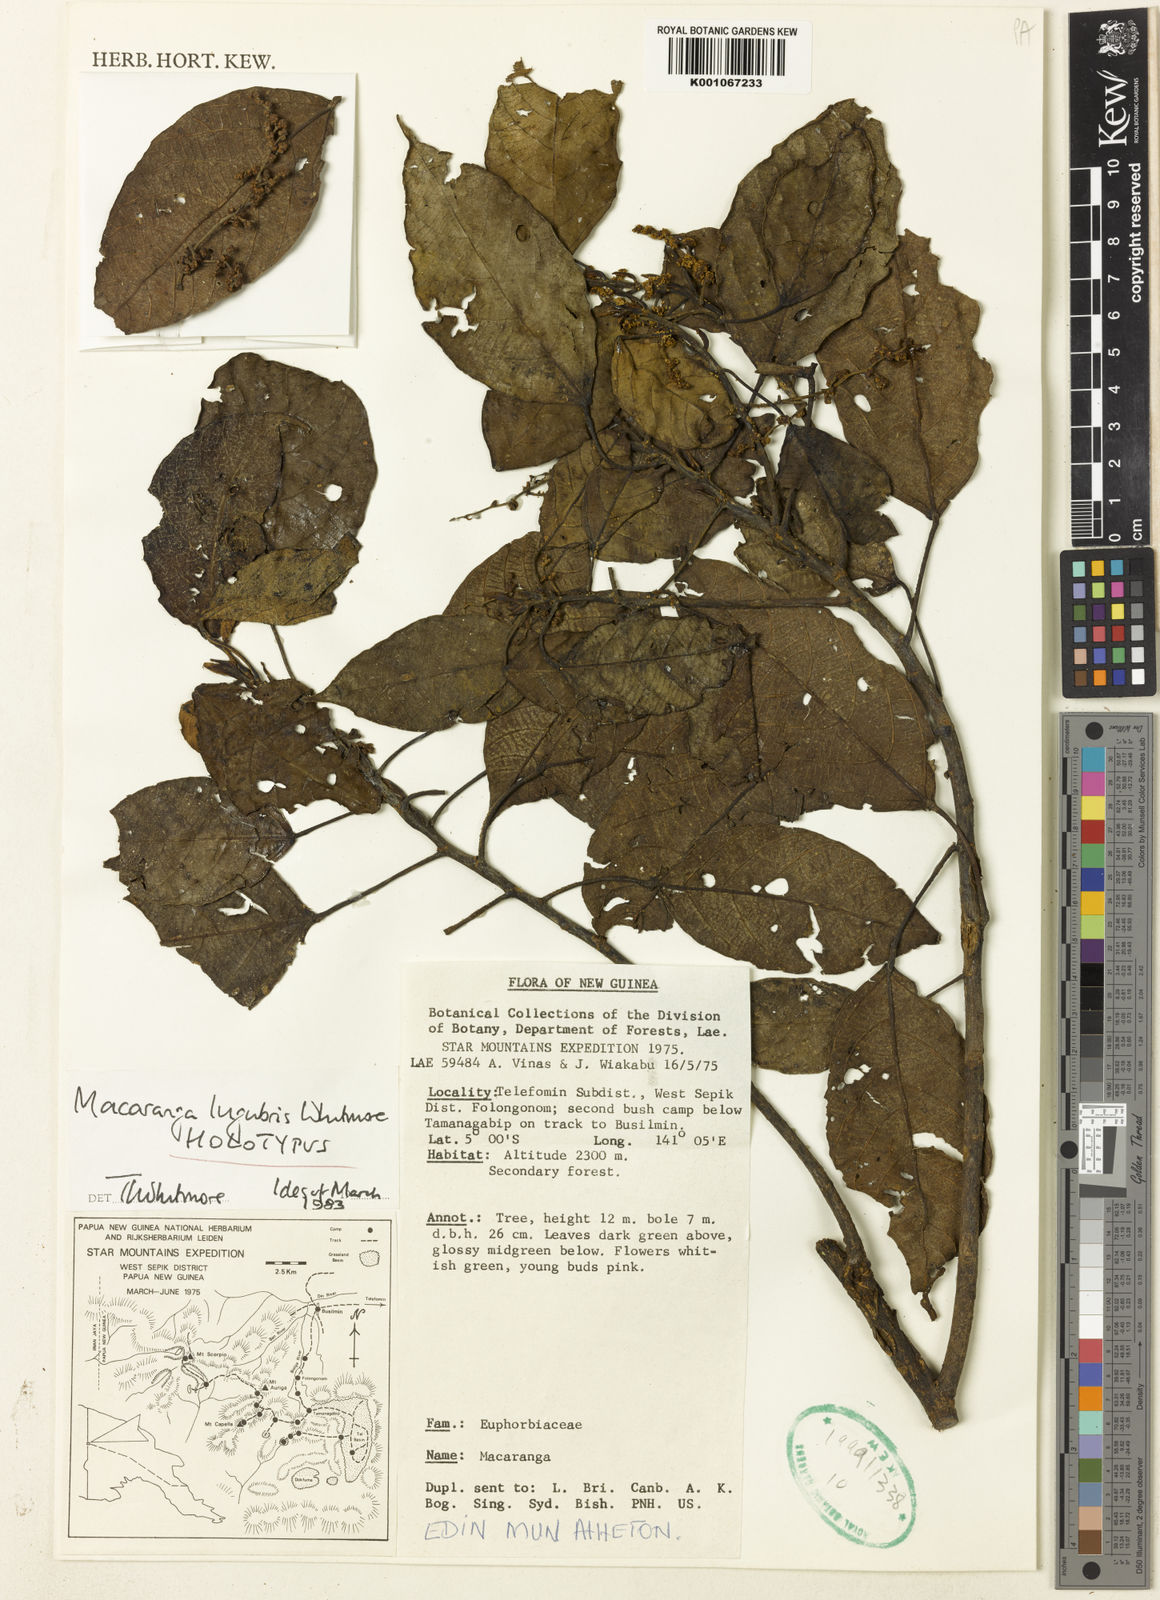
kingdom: Plantae
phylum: Tracheophyta
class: Magnoliopsida
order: Malpighiales
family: Euphorbiaceae
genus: Macaranga
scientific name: Macaranga lugubris
